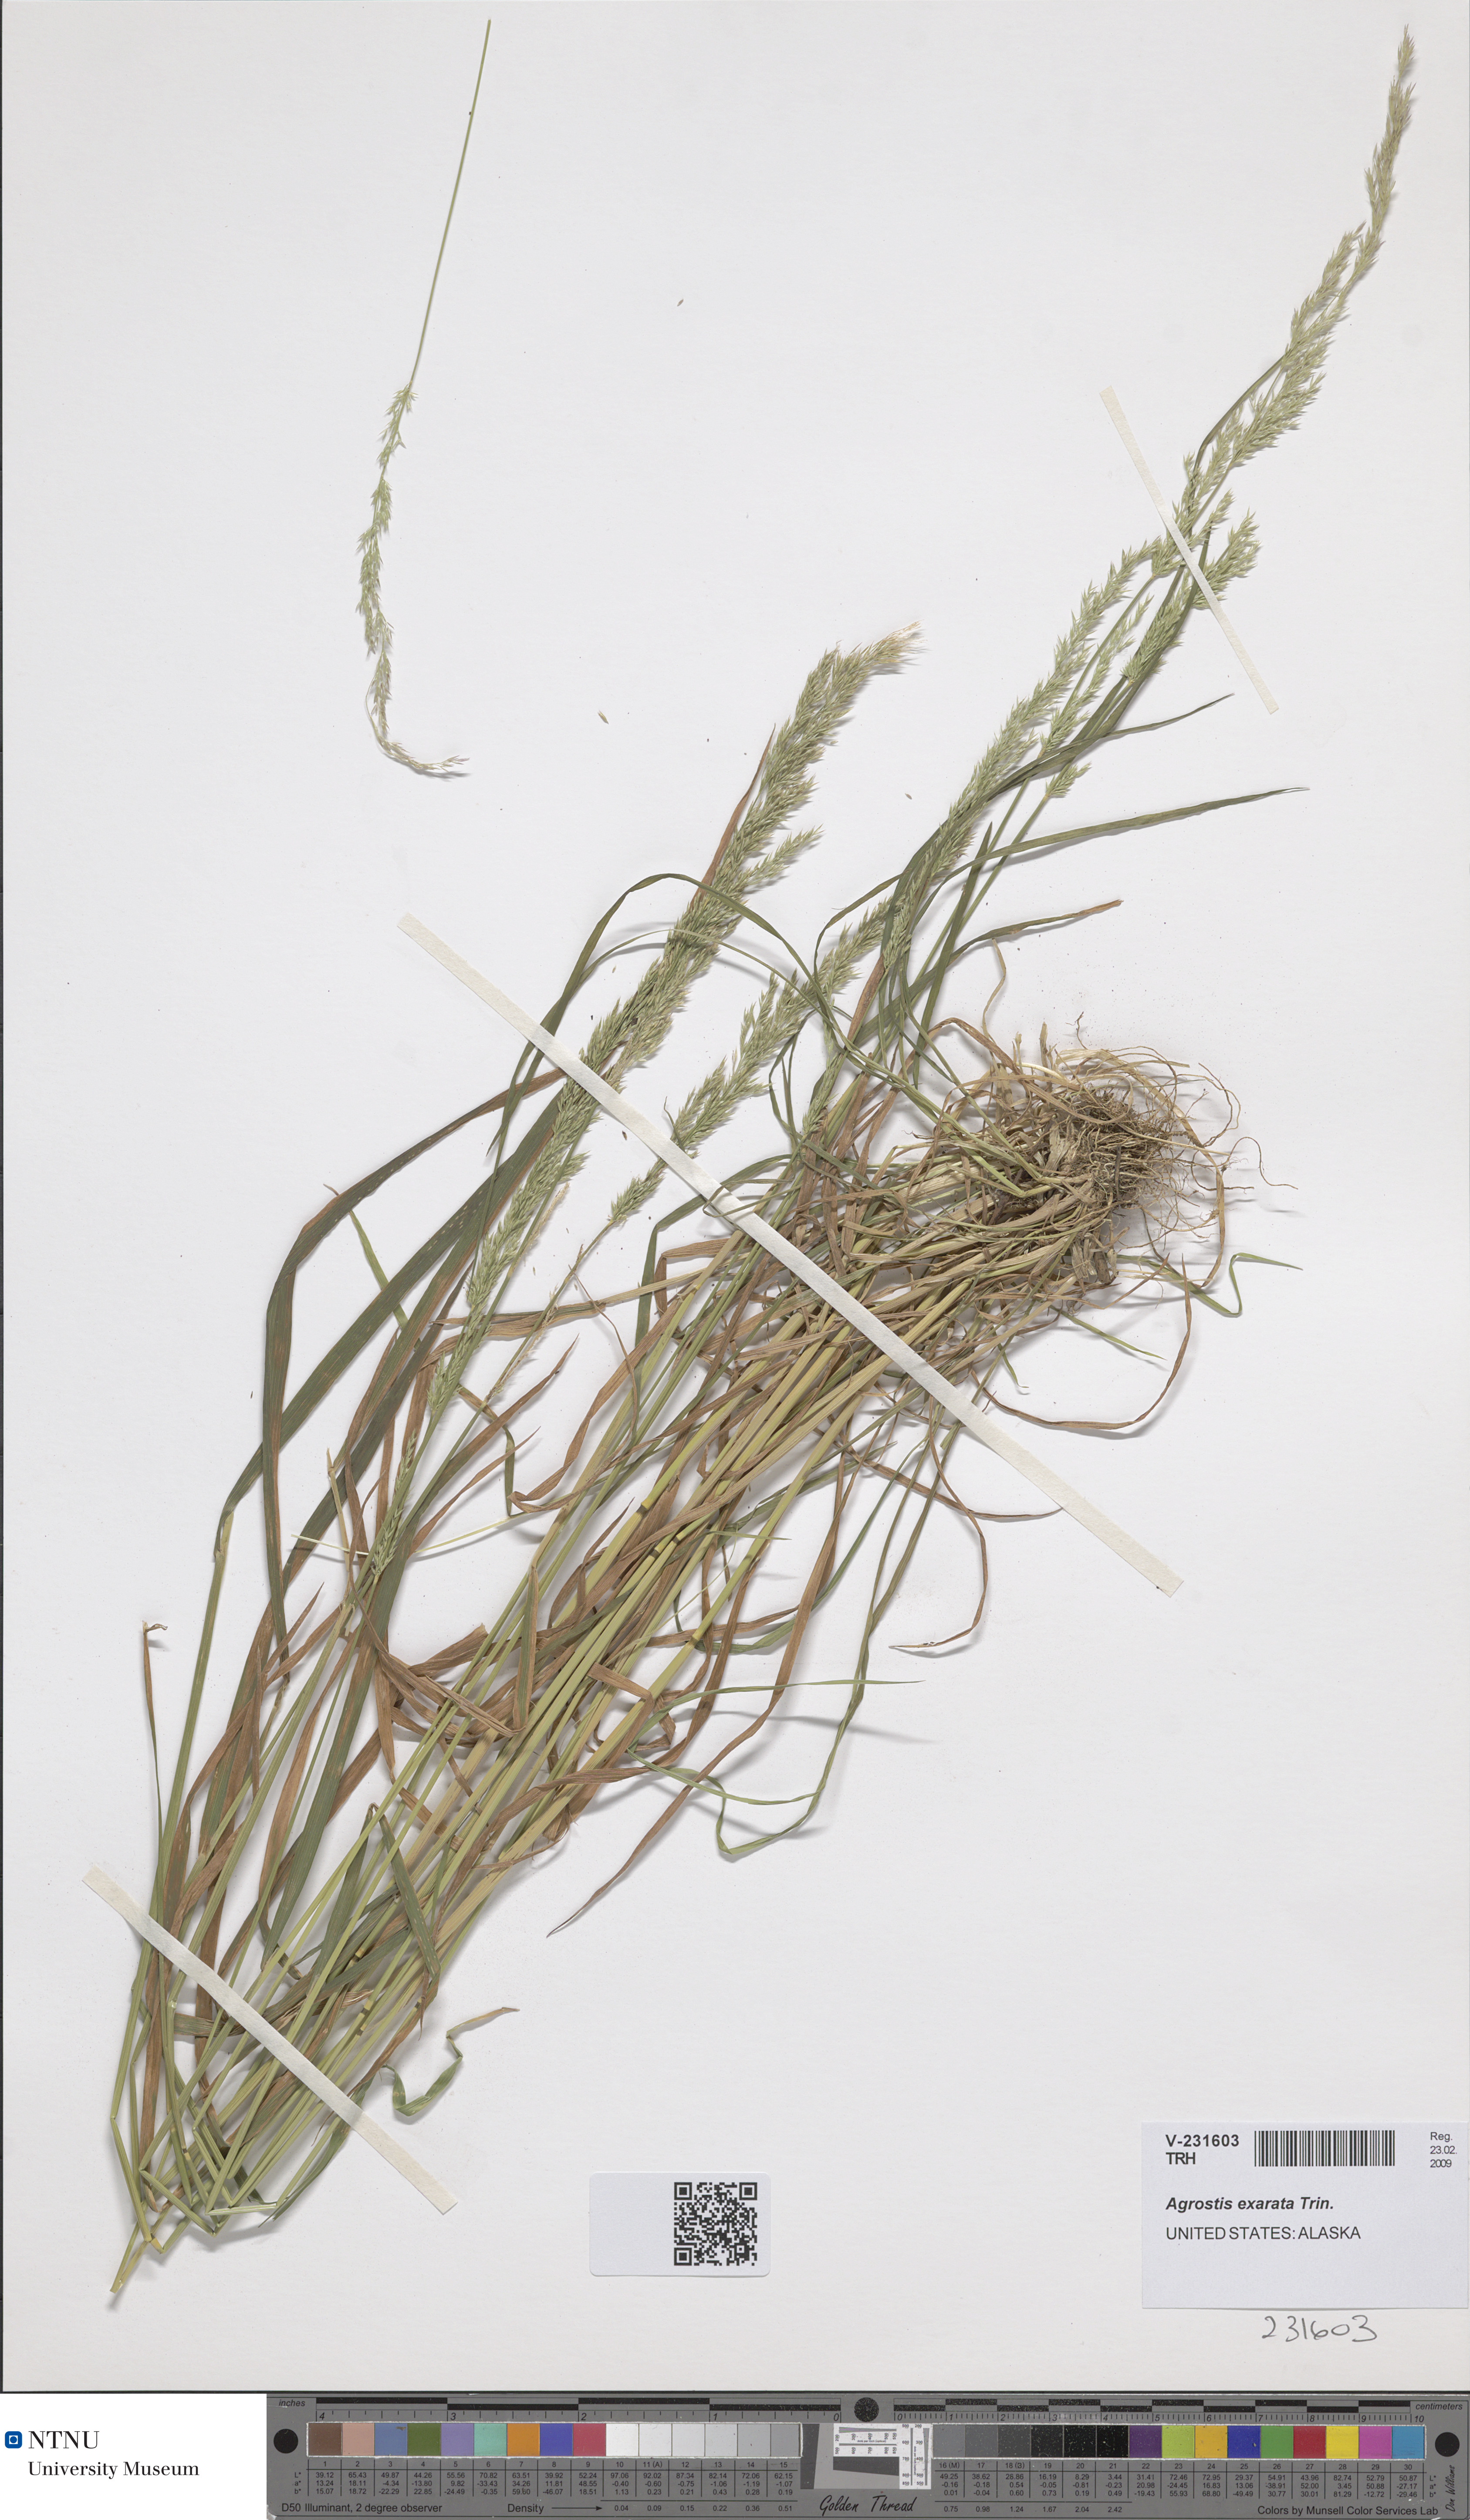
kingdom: Plantae
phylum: Tracheophyta
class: Liliopsida
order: Poales
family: Poaceae
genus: Agrostis
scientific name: Agrostis exarata
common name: Spike bent
